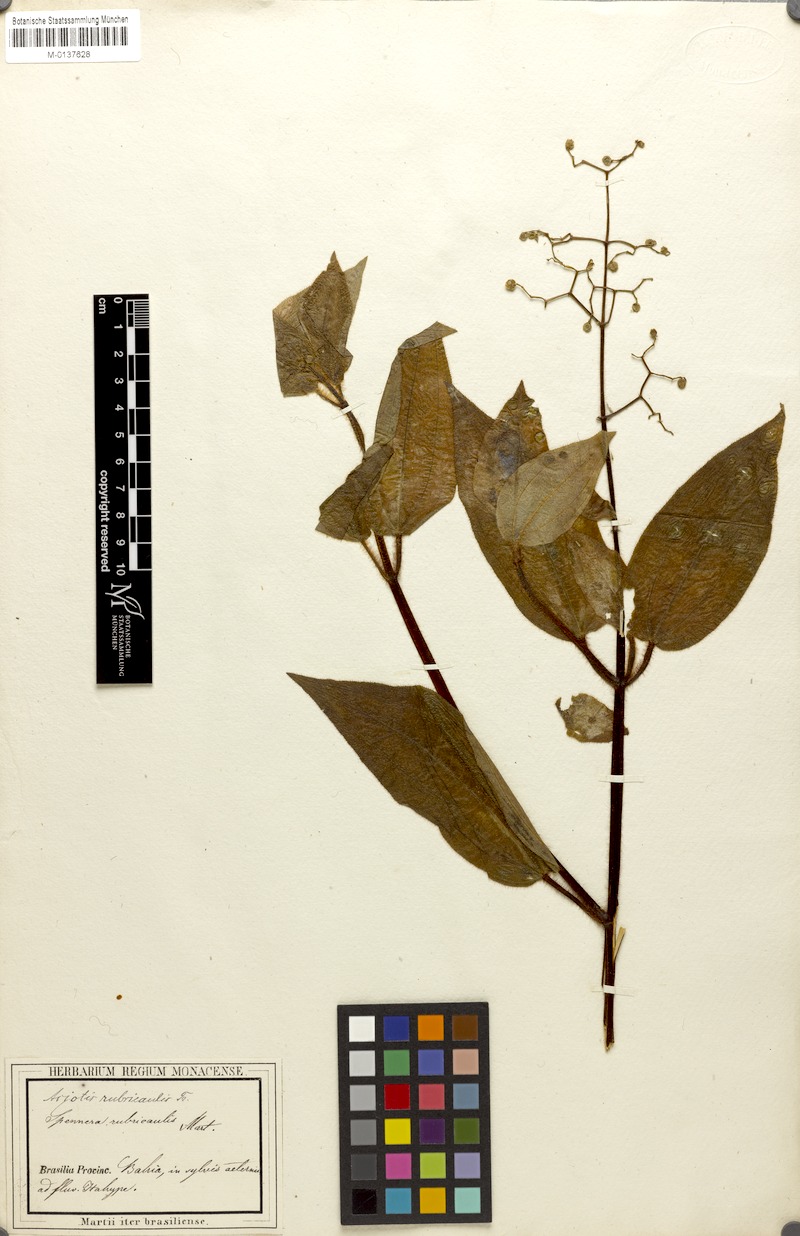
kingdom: Plantae
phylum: Tracheophyta
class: Magnoliopsida
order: Myrtales
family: Melastomataceae
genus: Aciotis
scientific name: Aciotis rubricaulis
